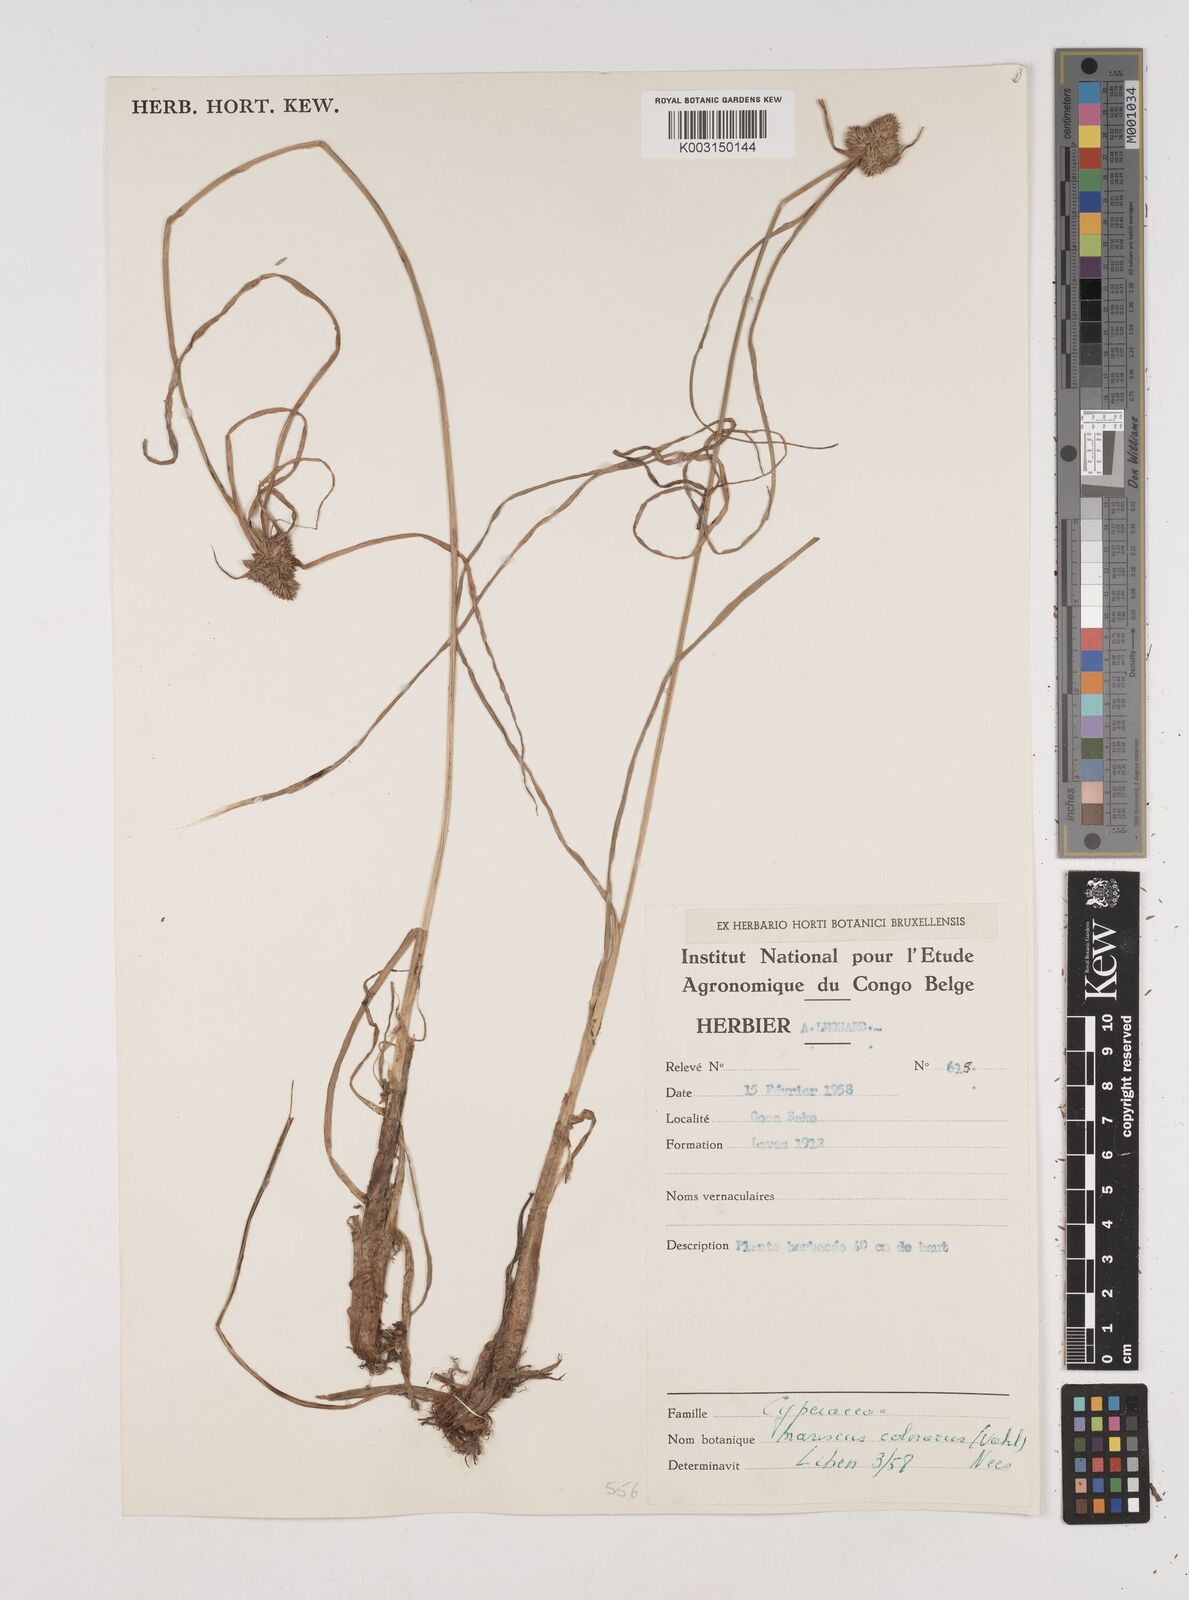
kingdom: Plantae
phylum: Tracheophyta
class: Liliopsida
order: Poales
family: Cyperaceae
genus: Cyperus
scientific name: Cyperus dubius
